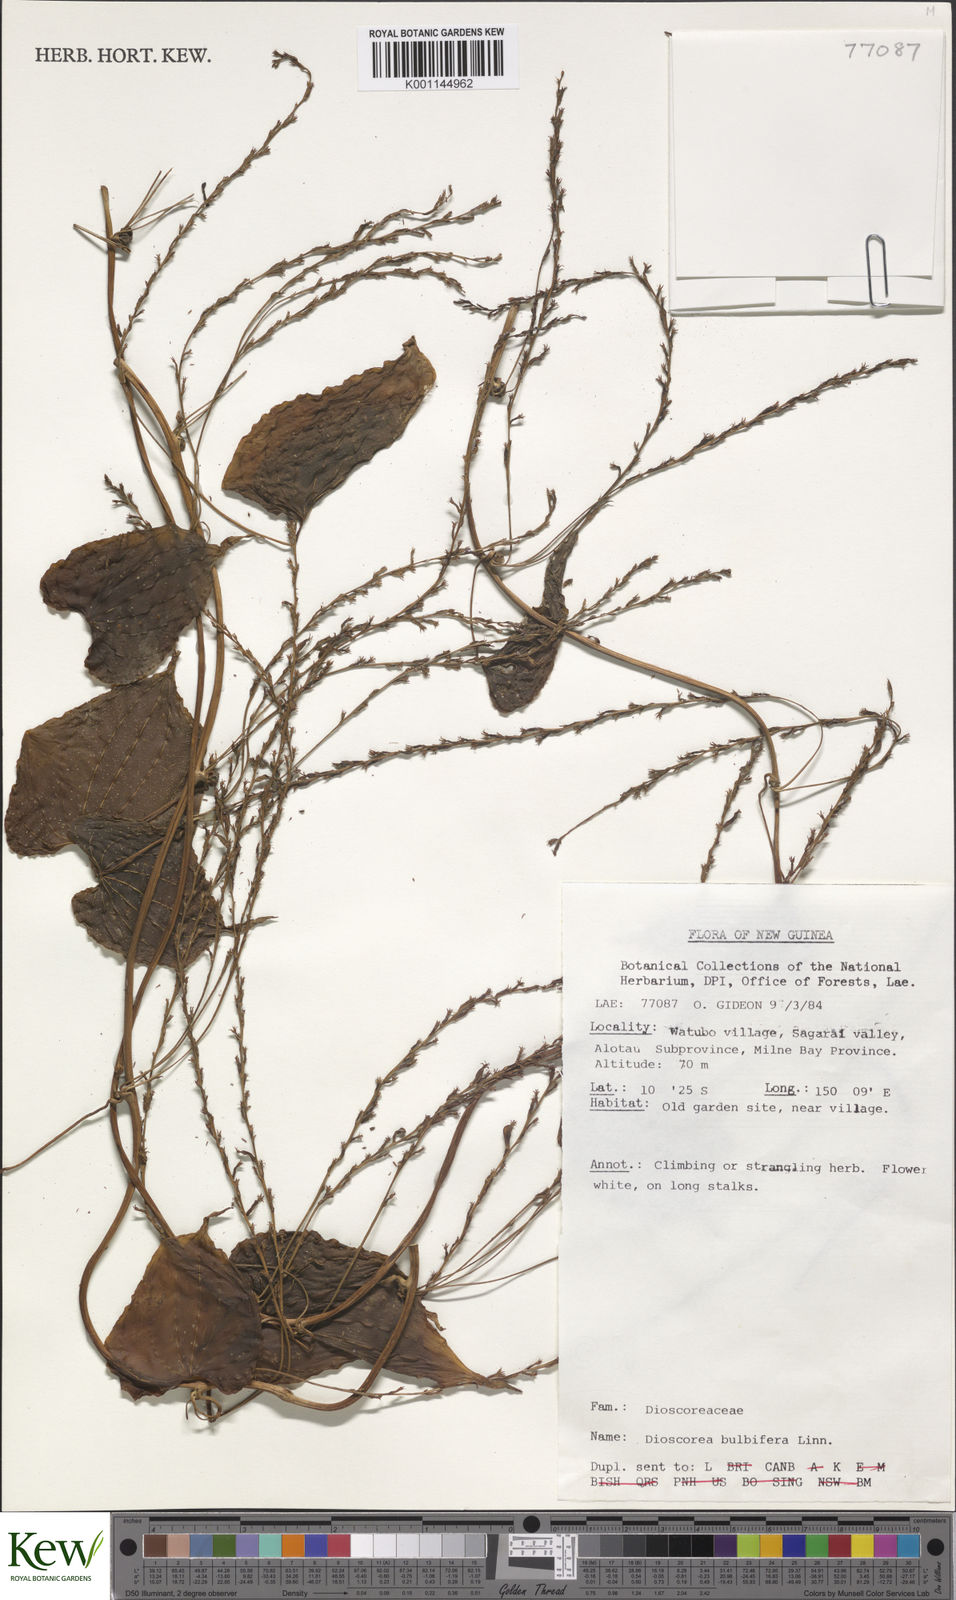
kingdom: Plantae
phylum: Tracheophyta
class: Liliopsida
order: Dioscoreales
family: Dioscoreaceae
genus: Dioscorea
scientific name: Dioscorea bulbifera
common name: Air yam
